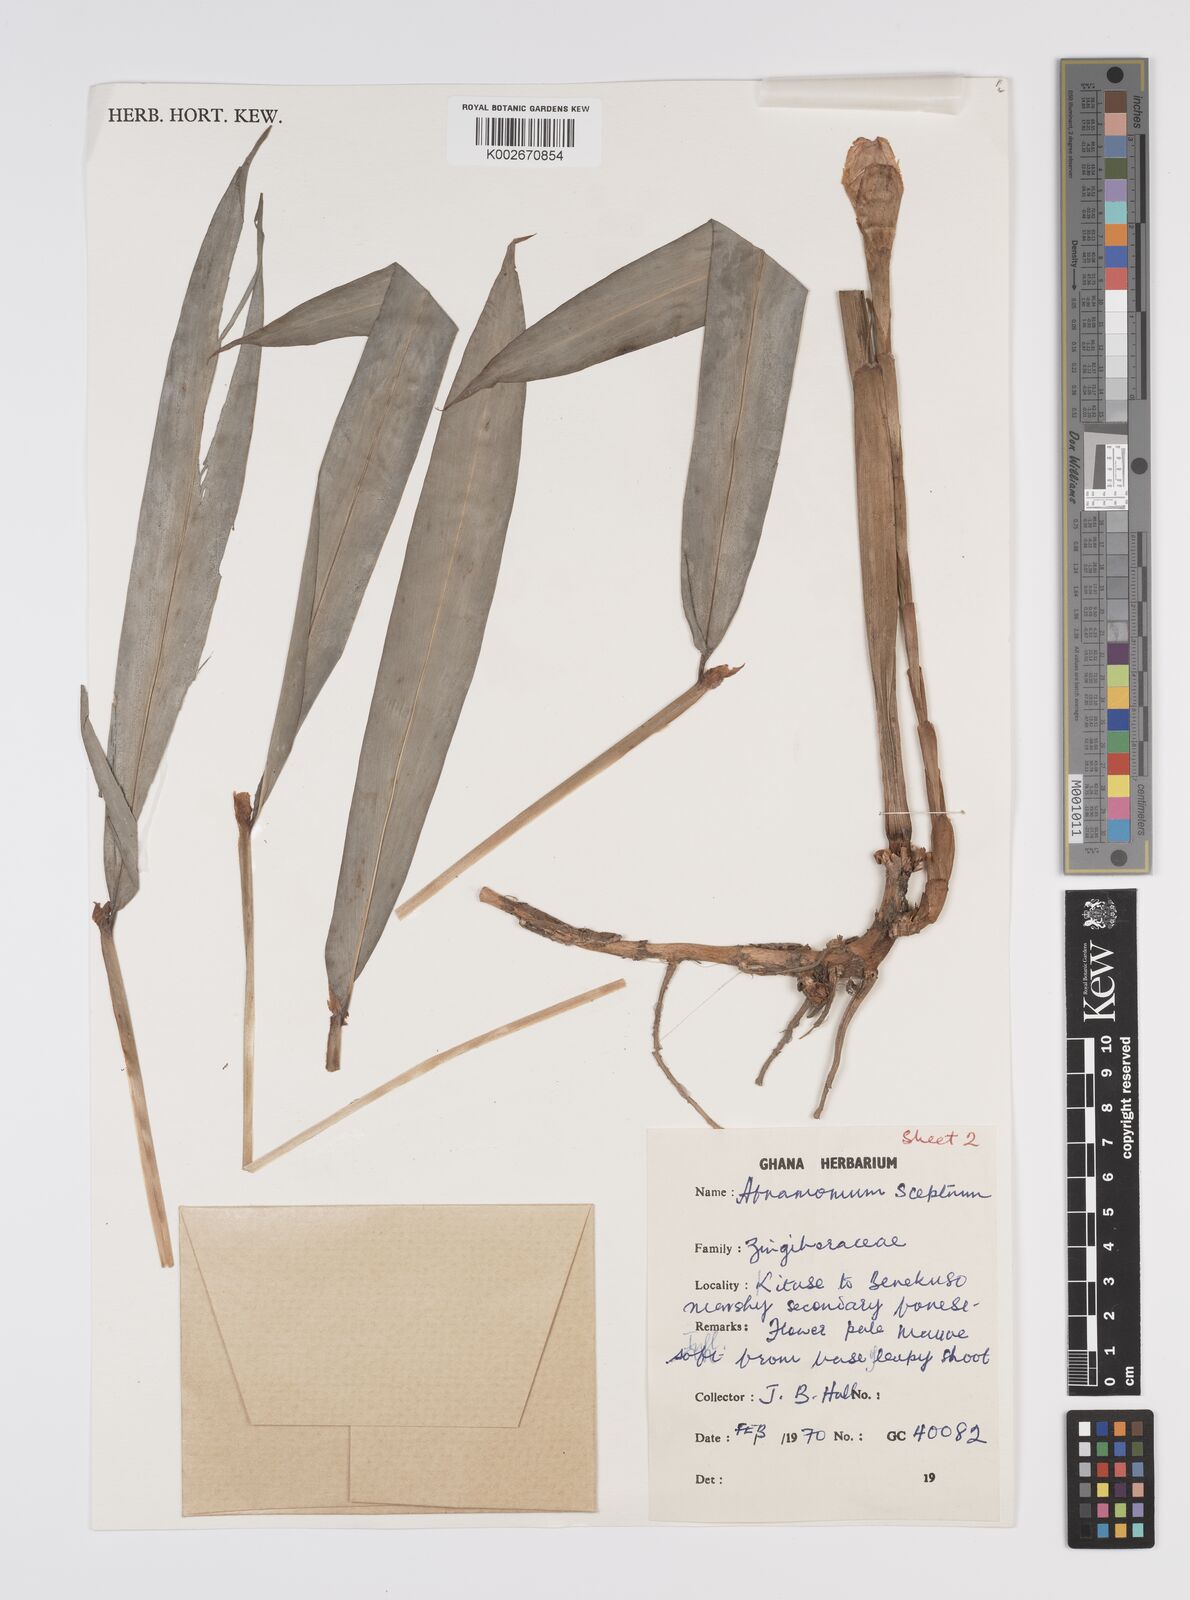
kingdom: Plantae
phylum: Tracheophyta
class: Liliopsida
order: Zingiberales
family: Zingiberaceae
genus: Aframomum
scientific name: Aframomum cereum
